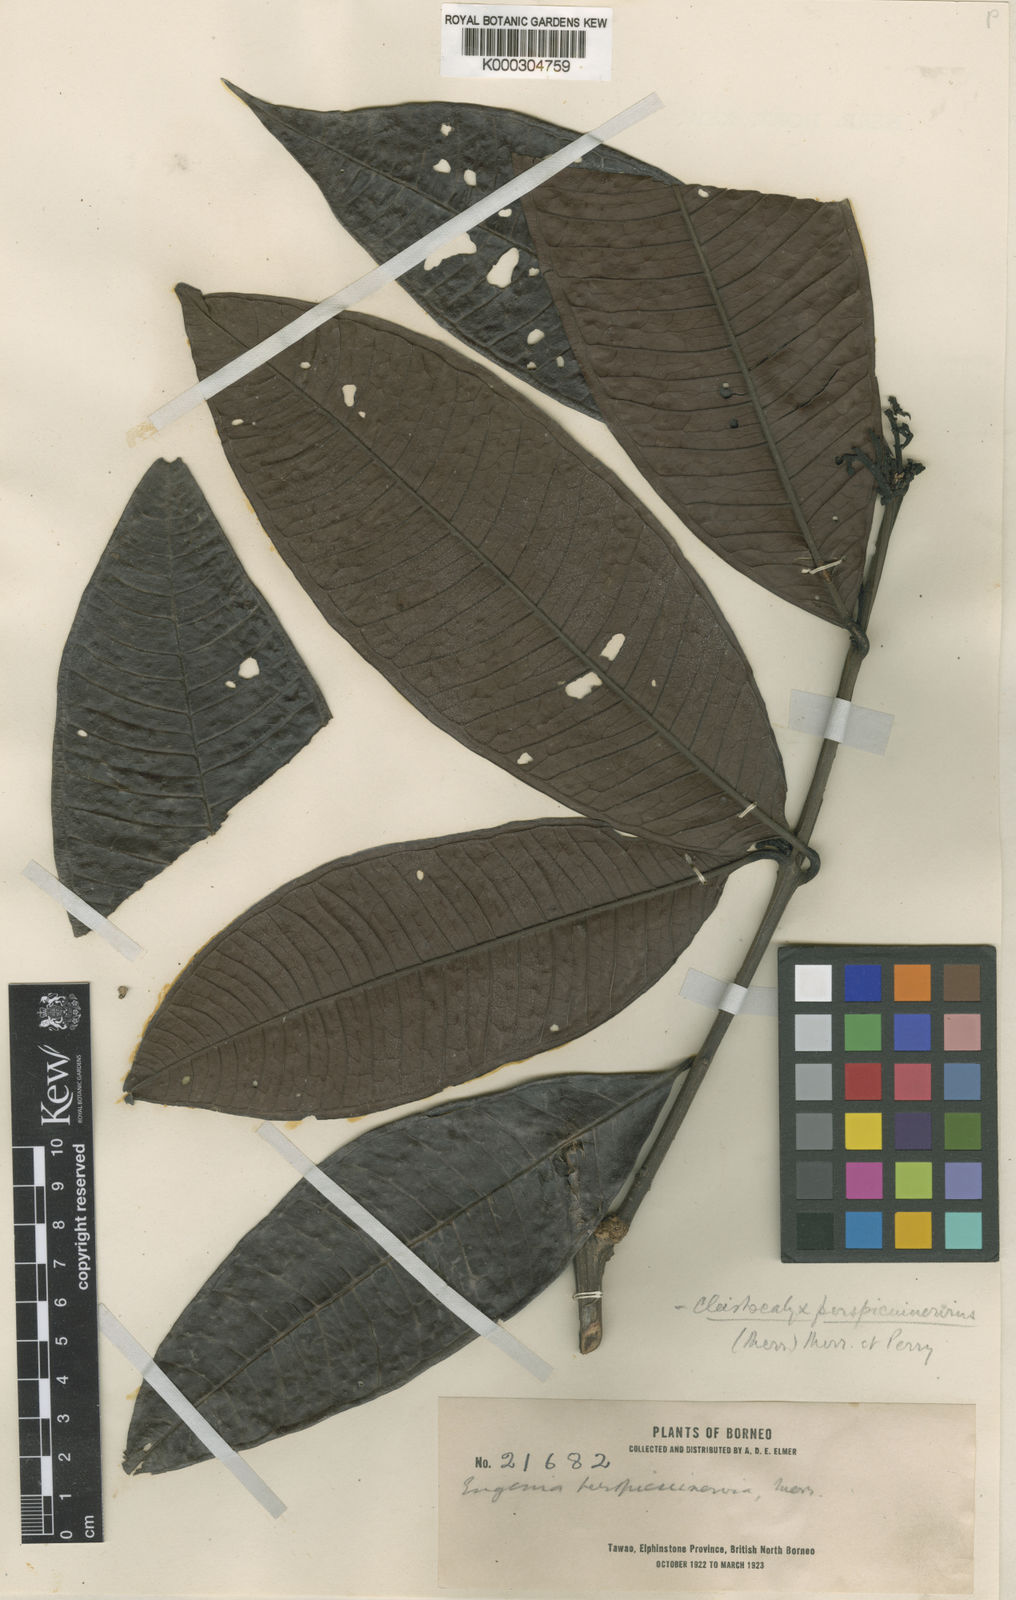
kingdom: Plantae
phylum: Tracheophyta
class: Magnoliopsida
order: Myrtales
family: Myrtaceae
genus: Syzygium
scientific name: Syzygium perspicuinervium
